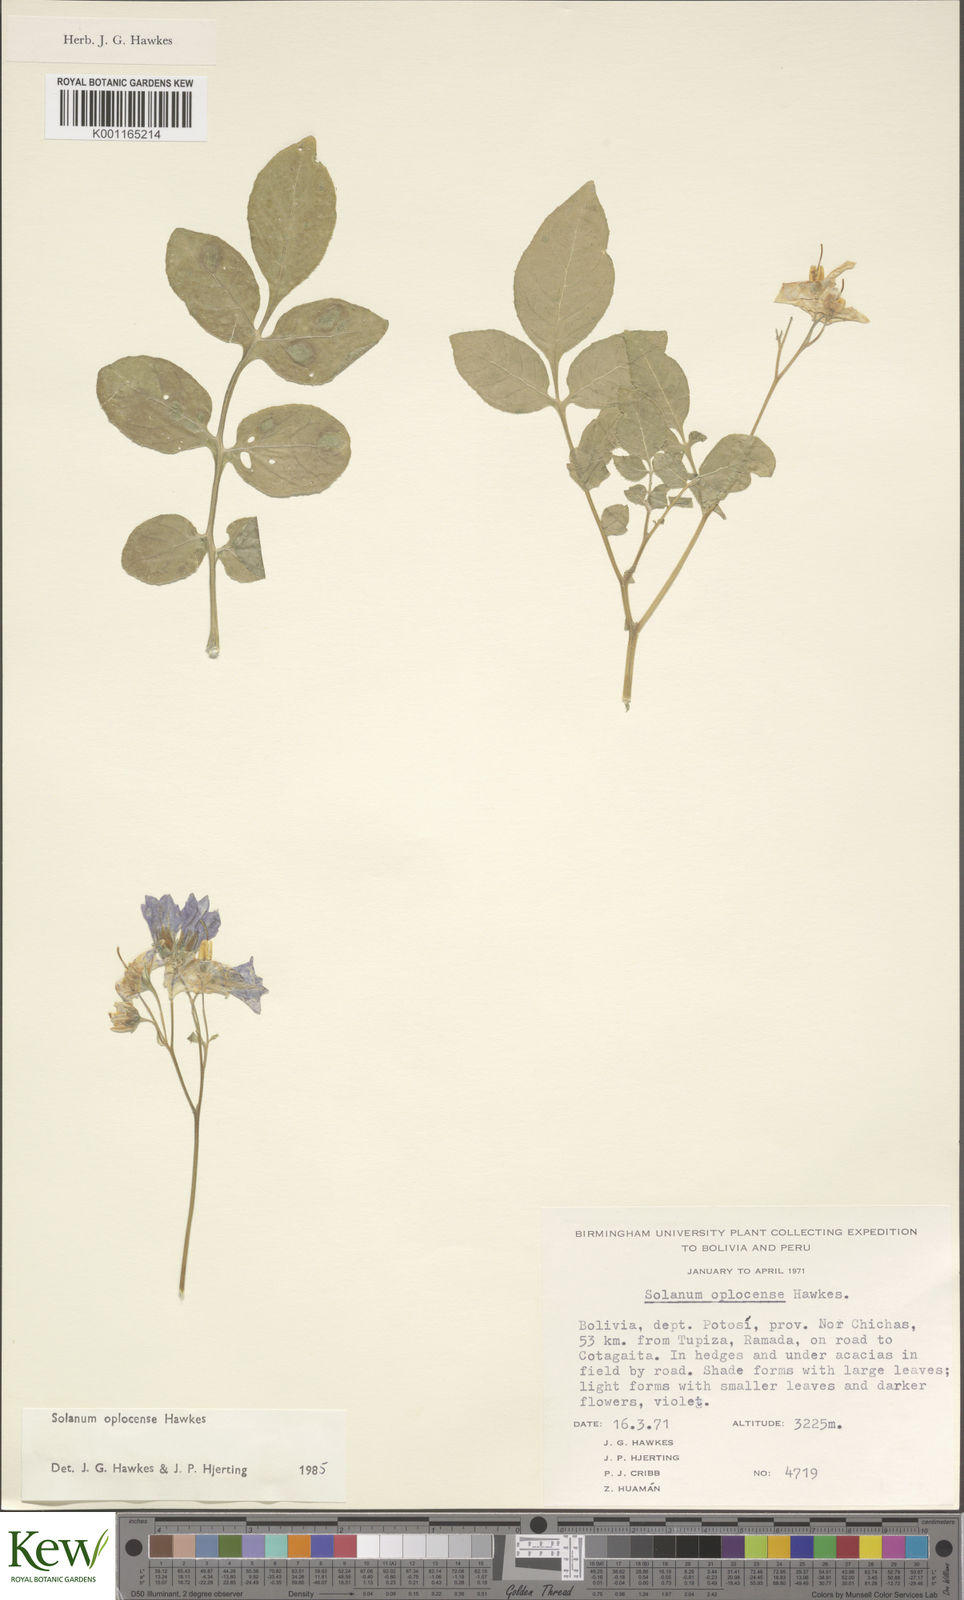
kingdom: Plantae
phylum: Tracheophyta
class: Magnoliopsida
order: Solanales
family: Solanaceae
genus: Solanum
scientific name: Solanum brevicaule
